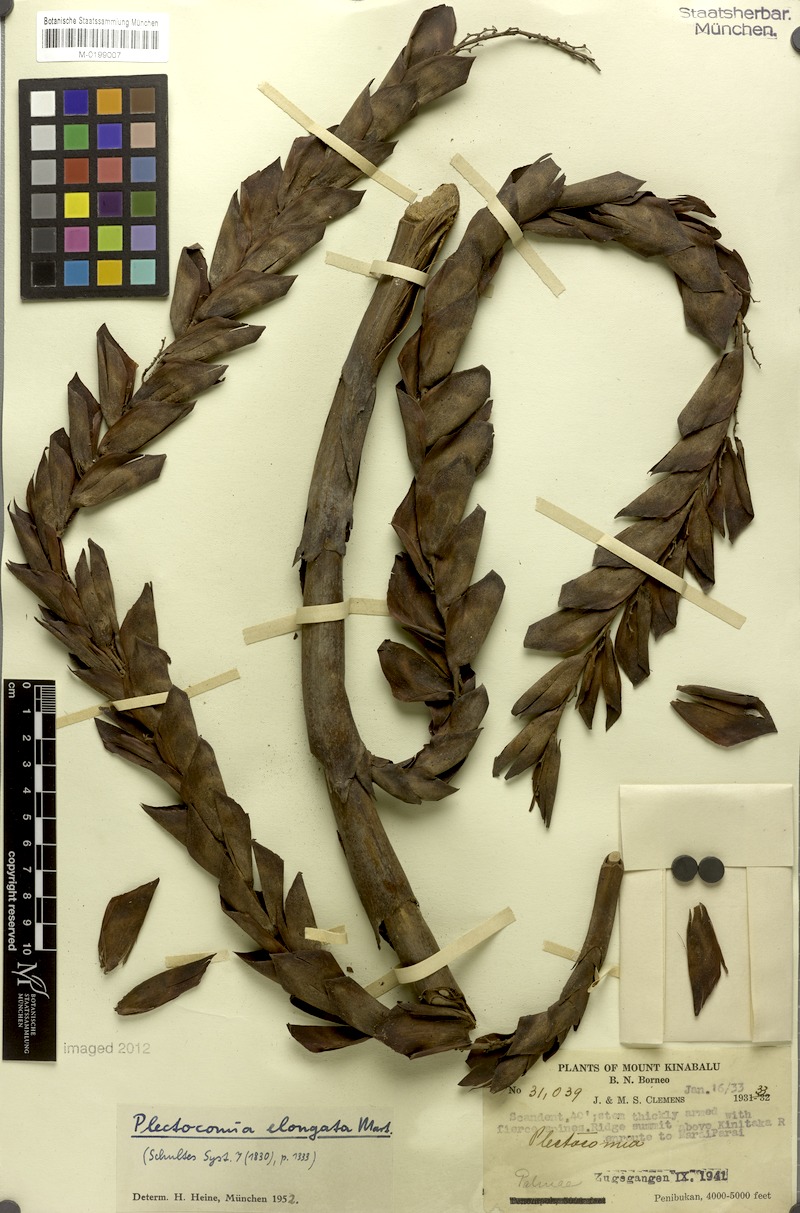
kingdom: Plantae
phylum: Tracheophyta
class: Liliopsida
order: Arecales
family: Arecaceae
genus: Plectocomia
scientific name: Plectocomia elongata
